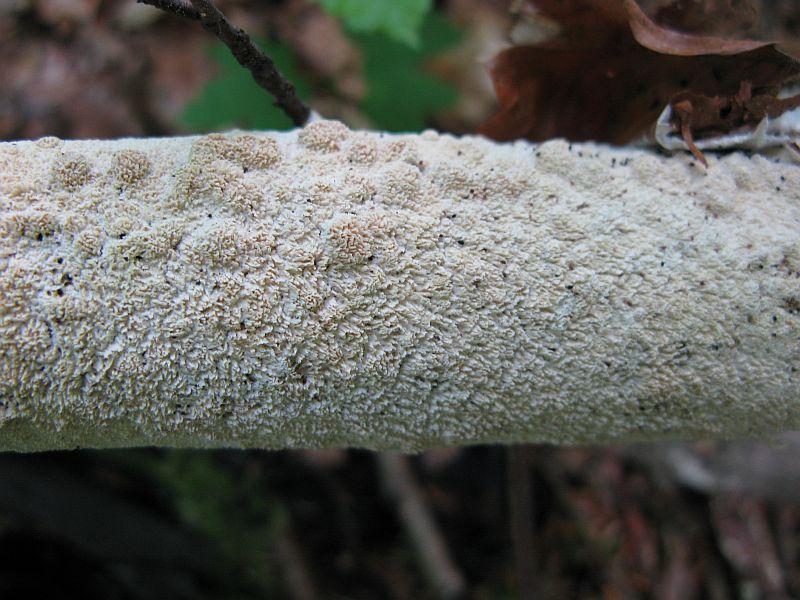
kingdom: Fungi
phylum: Basidiomycota
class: Agaricomycetes
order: Hymenochaetales
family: Schizoporaceae
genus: Schizopora
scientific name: Schizopora paradoxa
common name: hvid tandsvamp
